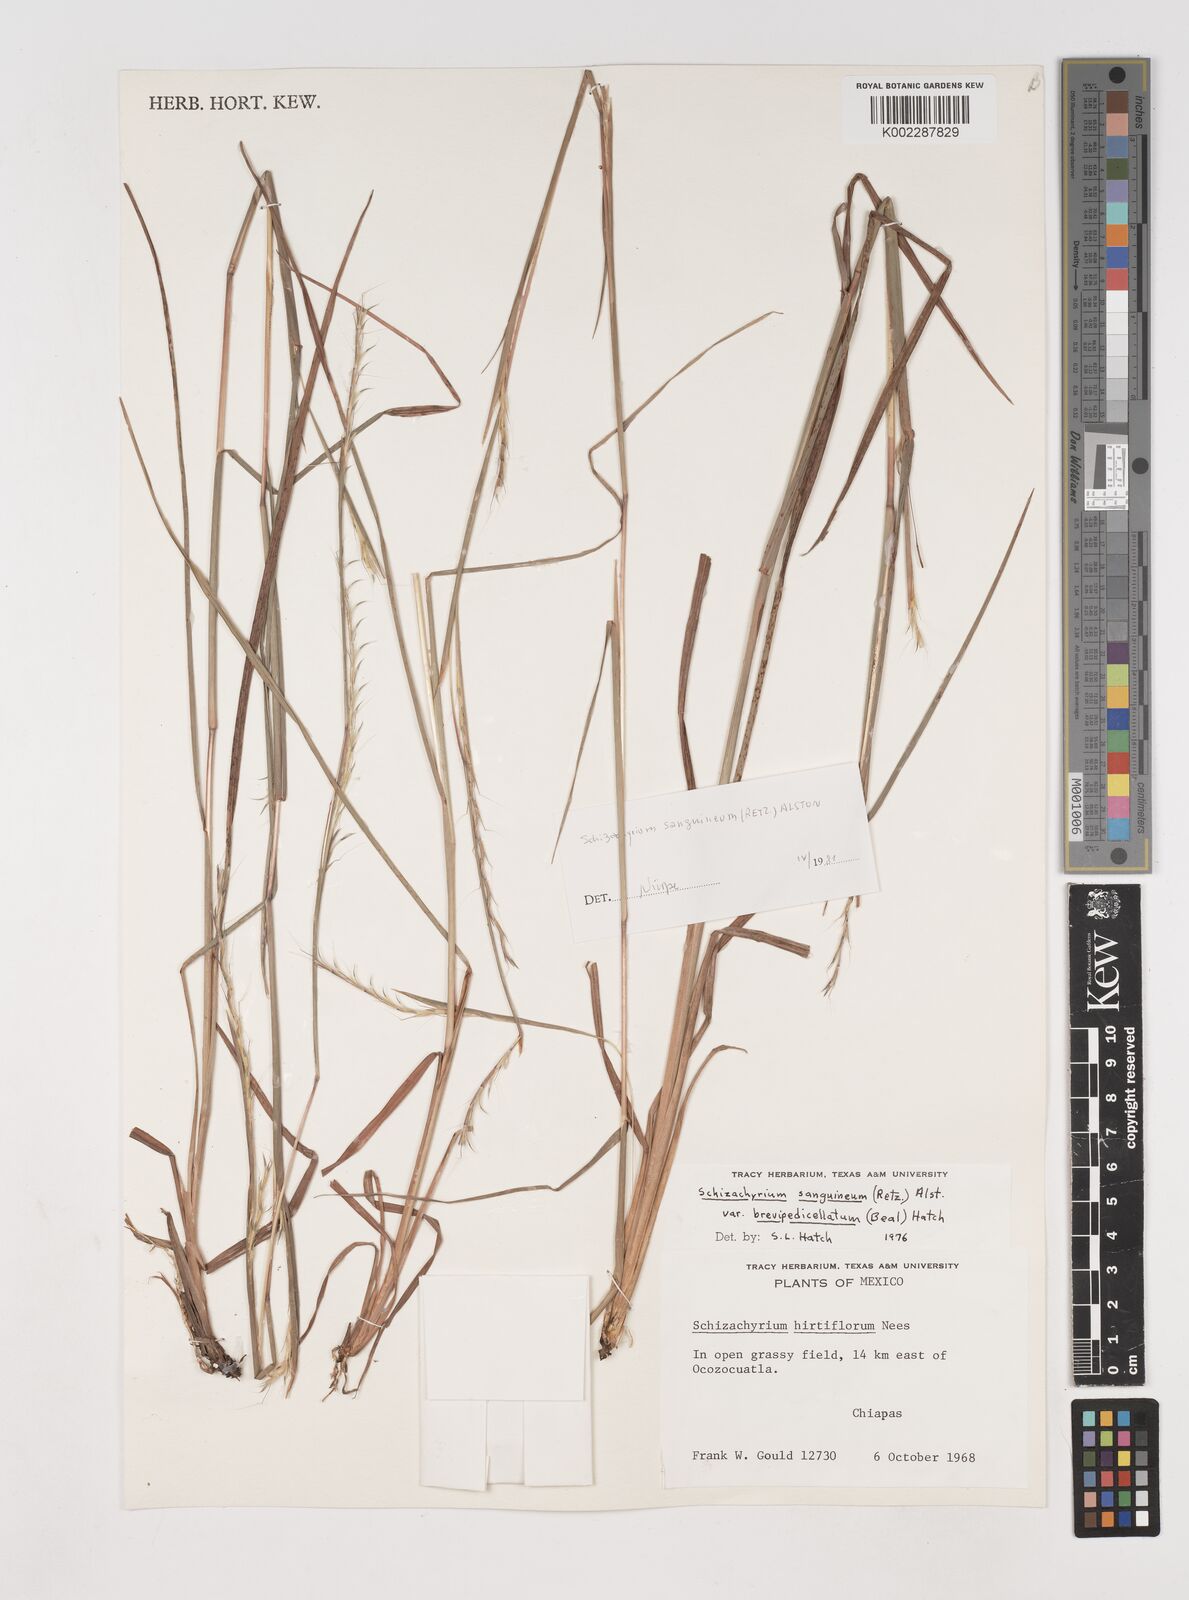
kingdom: Plantae
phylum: Tracheophyta
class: Liliopsida
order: Poales
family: Poaceae
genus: Schizachyrium
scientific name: Schizachyrium sanguineum
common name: Crimson bluestem
